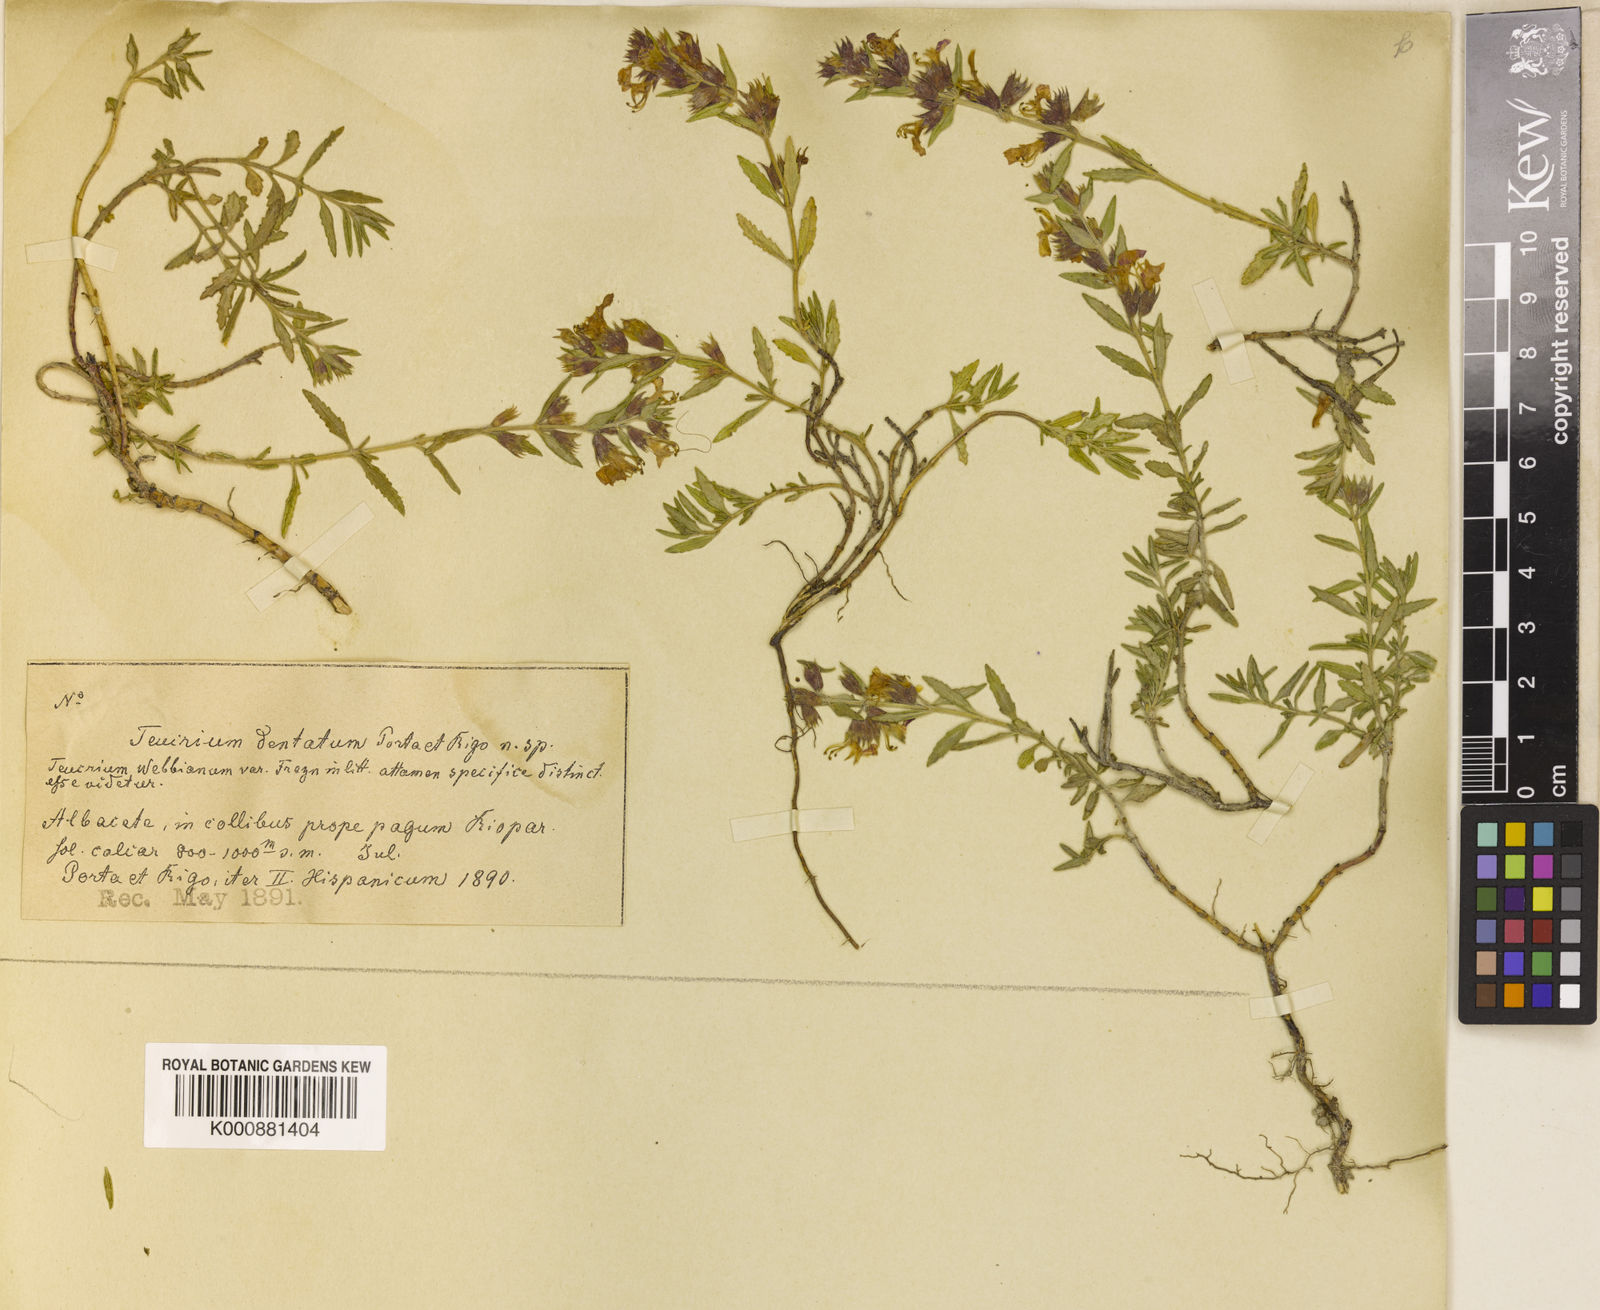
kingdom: Plantae
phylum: Tracheophyta
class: Magnoliopsida
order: Lamiales
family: Lamiaceae
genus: Teucrium
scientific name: Teucrium webbianum
